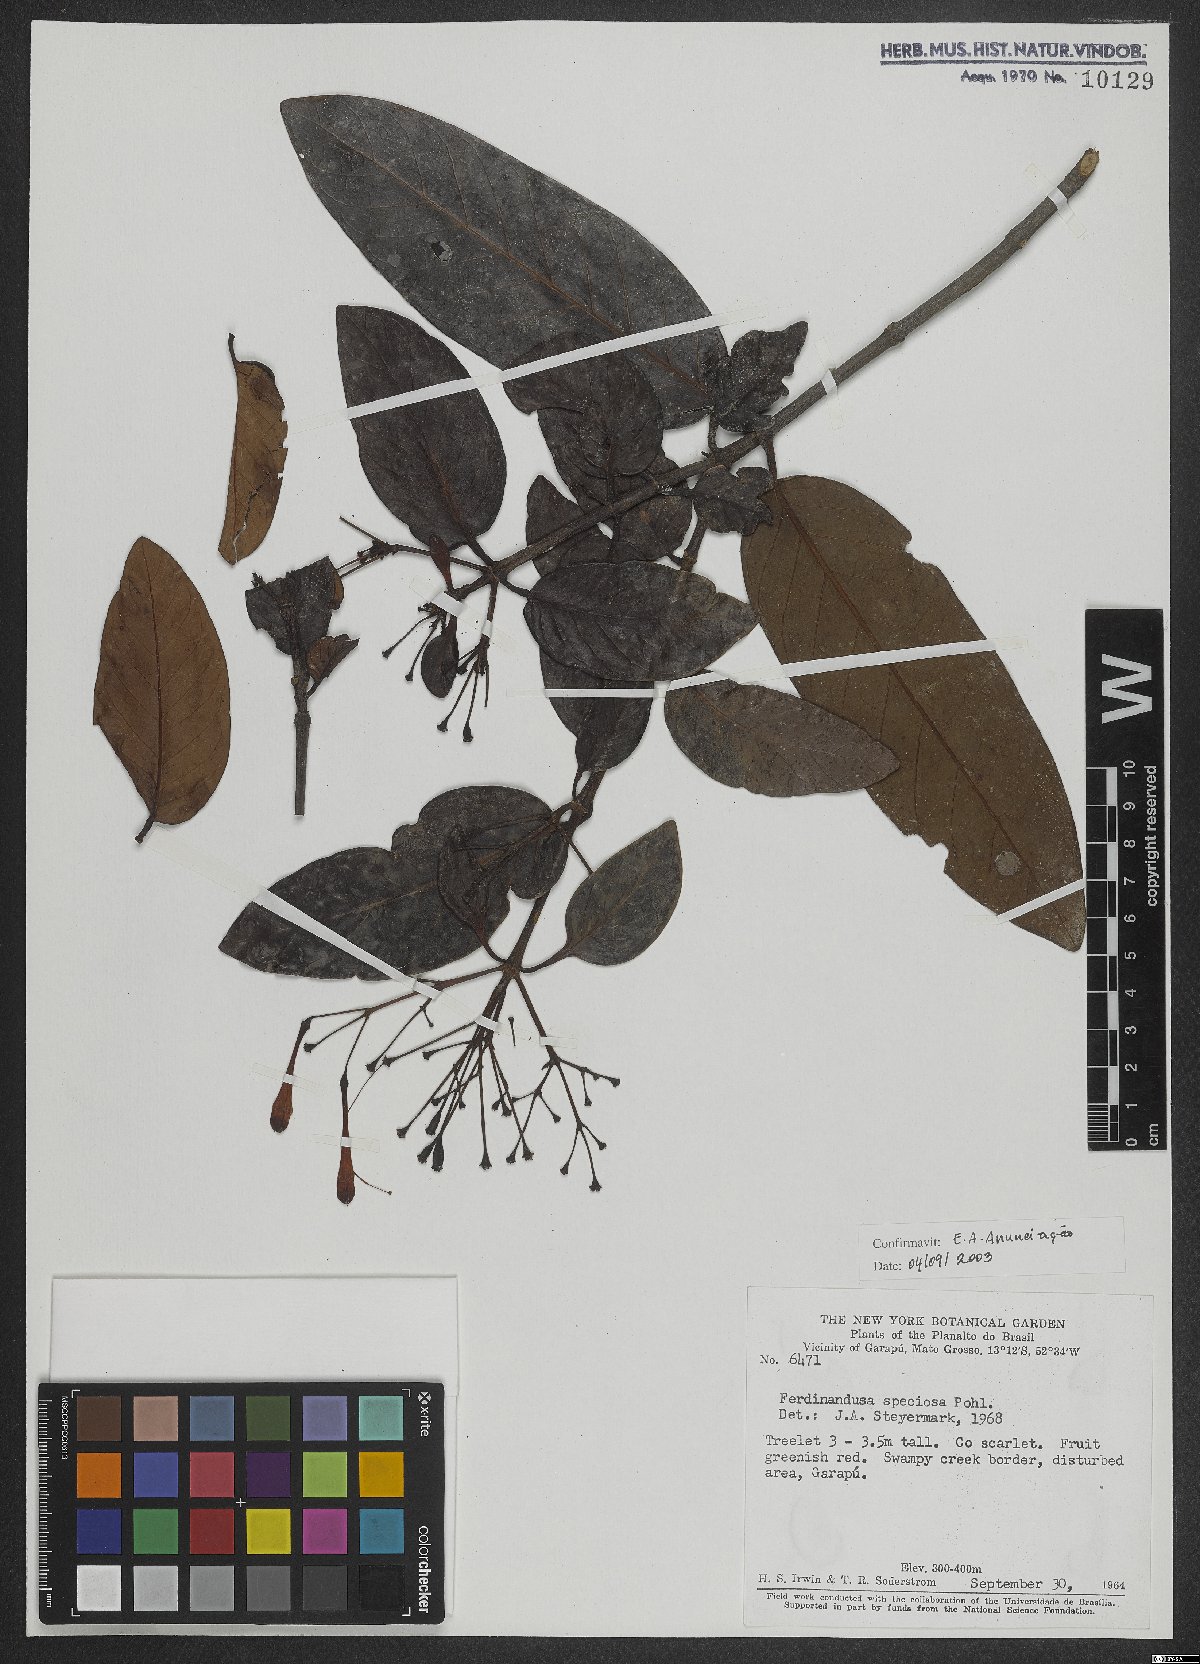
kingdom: Plantae
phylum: Tracheophyta
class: Magnoliopsida
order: Gentianales
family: Rubiaceae
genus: Ferdinandusa
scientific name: Ferdinandusa speciosa
